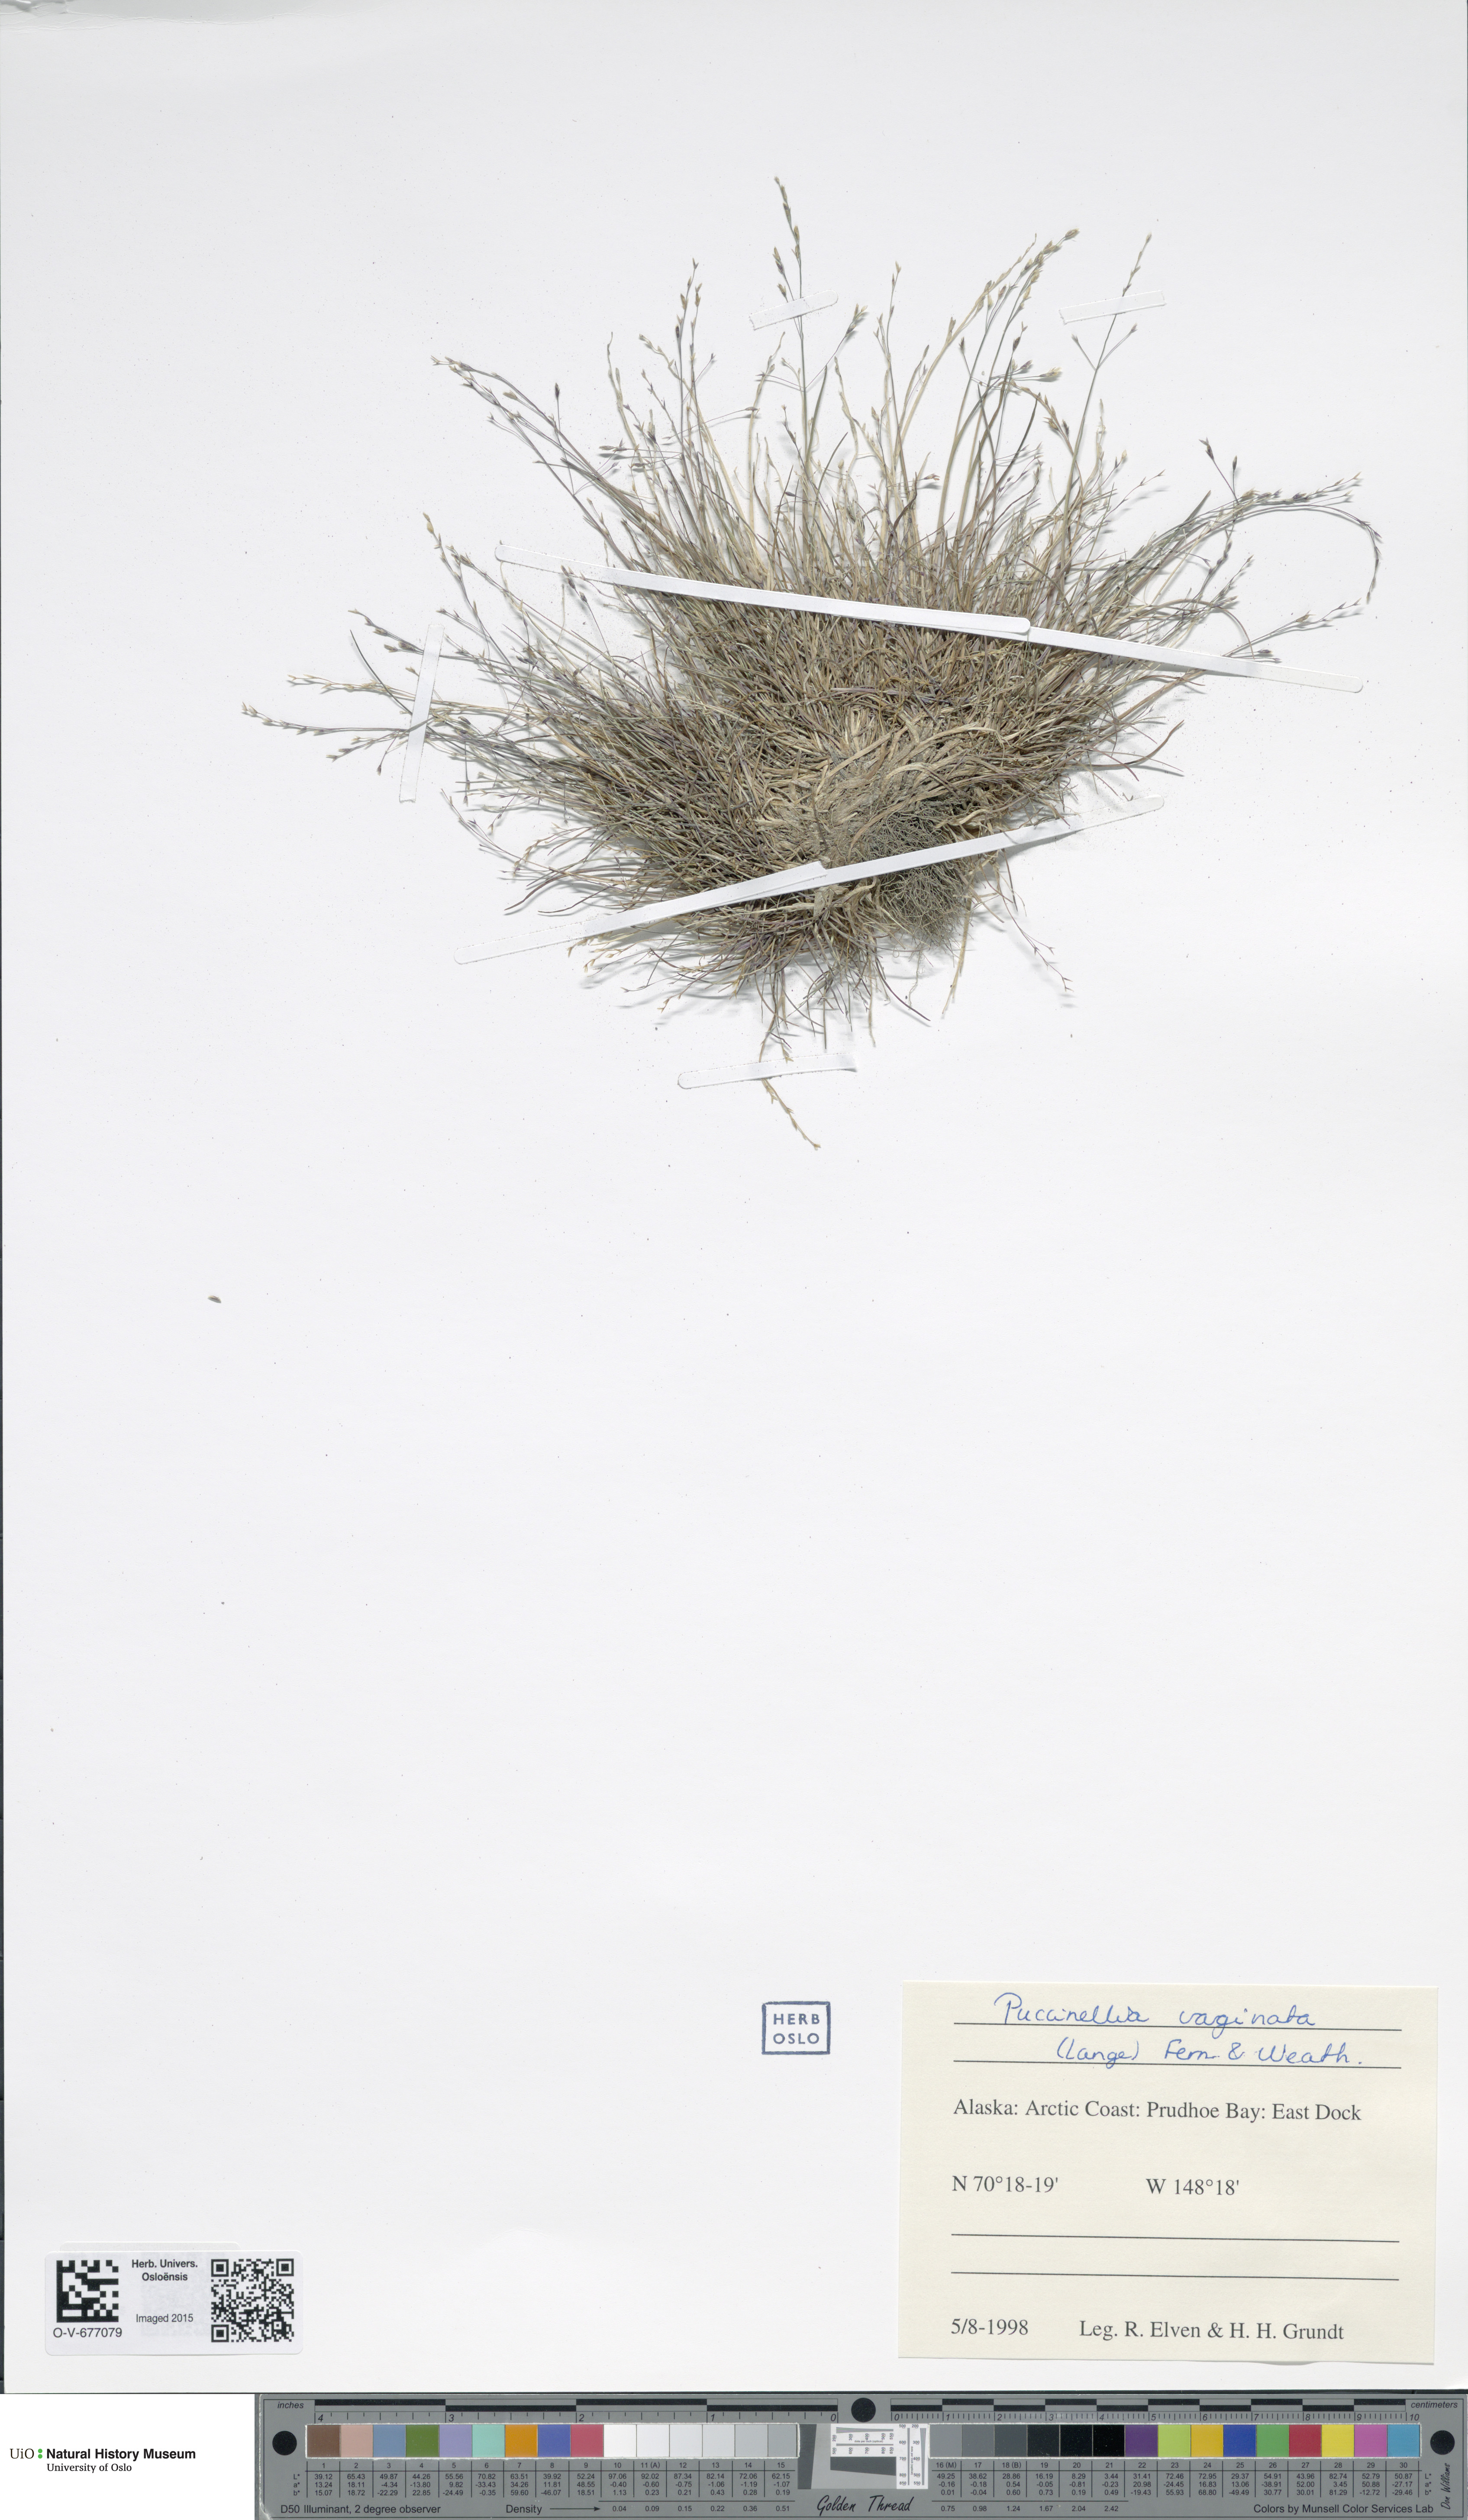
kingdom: Plantae
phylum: Tracheophyta
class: Liliopsida
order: Poales
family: Poaceae
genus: Puccinellia
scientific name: Puccinellia vaginata
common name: Arctic tussock alkaligrass
